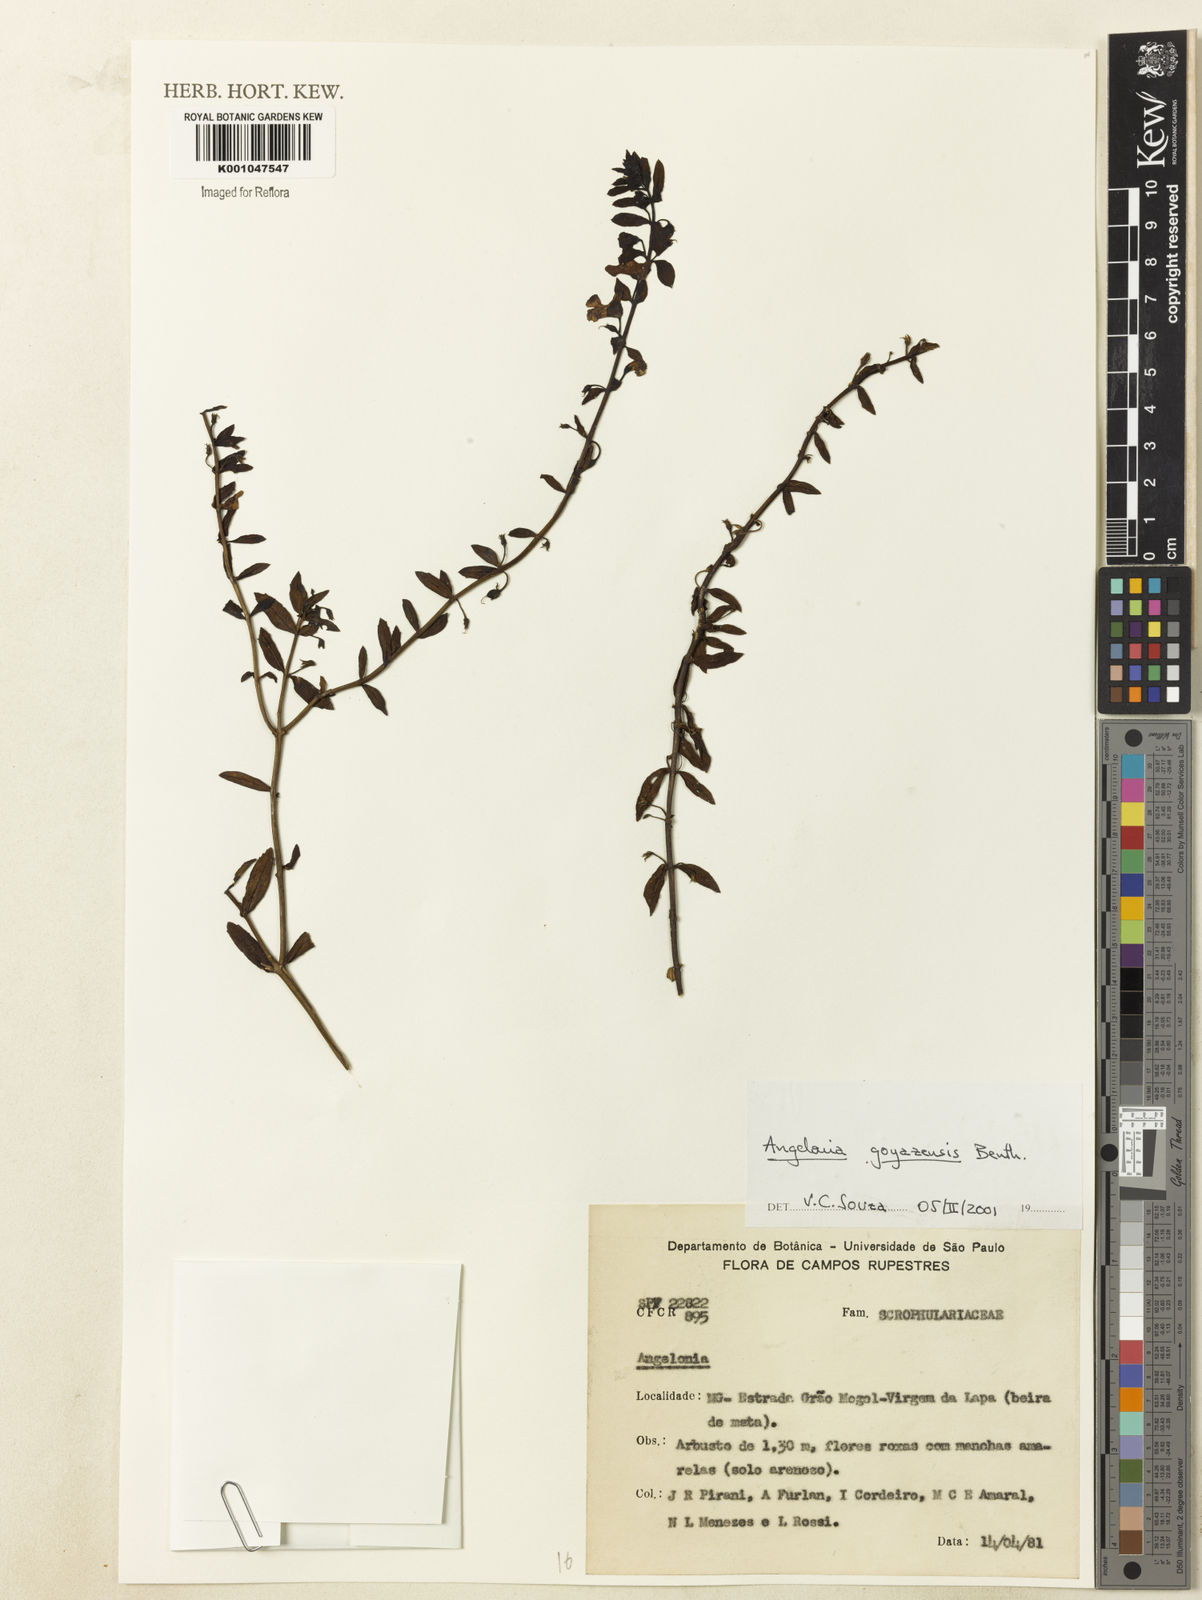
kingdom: Plantae
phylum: Tracheophyta
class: Magnoliopsida
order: Lamiales
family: Plantaginaceae
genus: Angelonia
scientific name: Angelonia goyazensis
